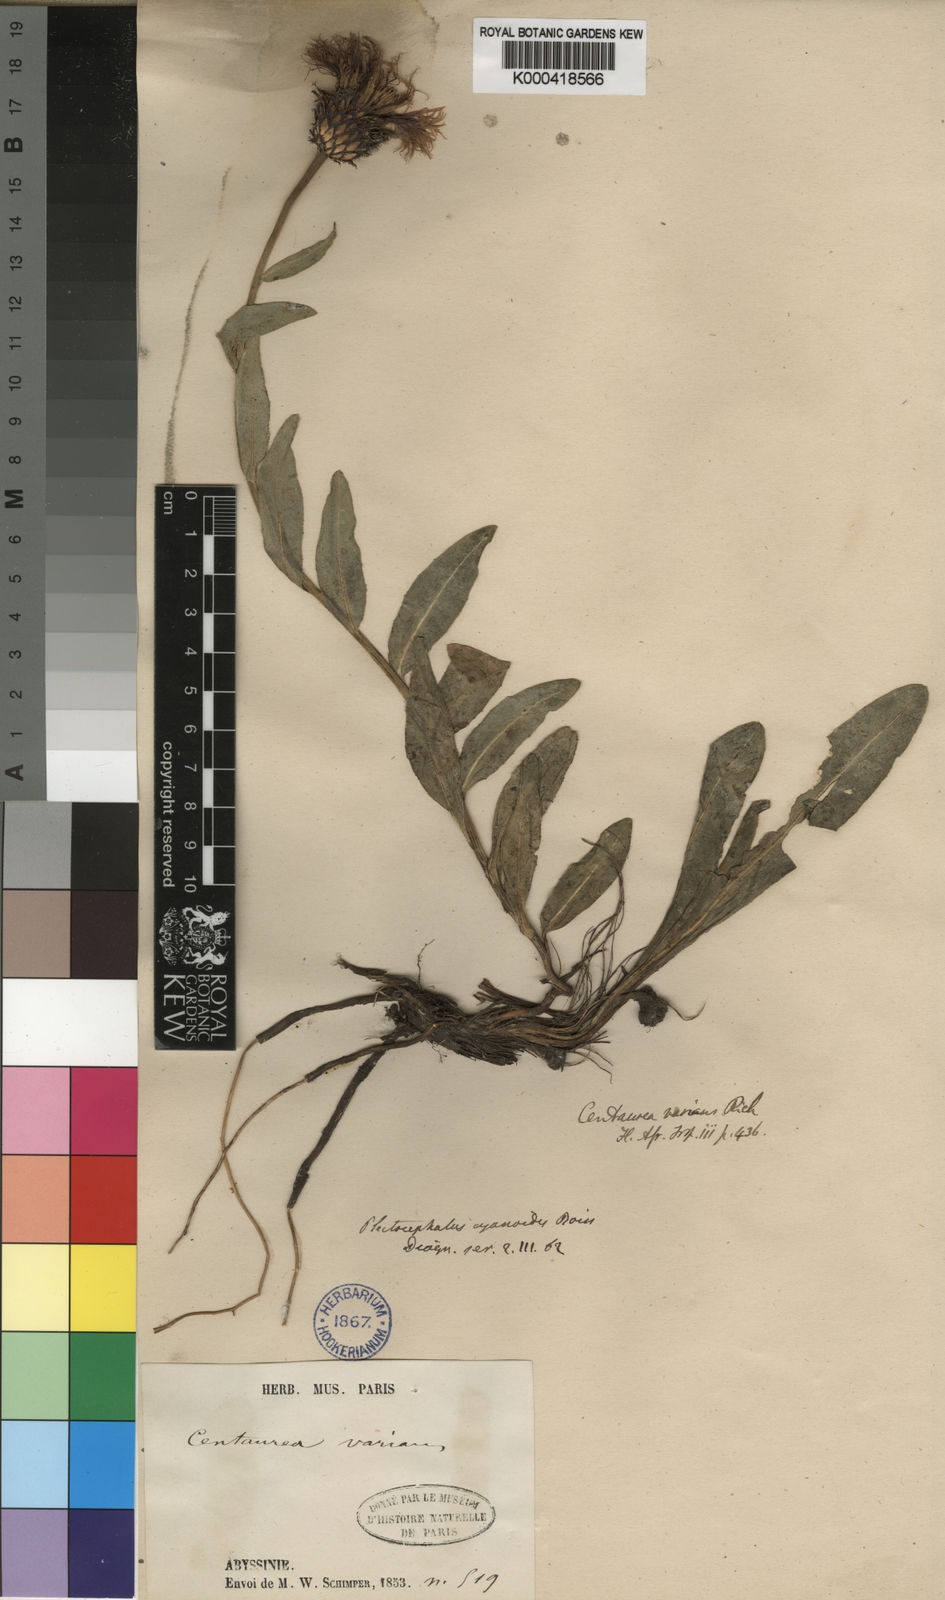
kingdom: Plantae
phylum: Tracheophyta
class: Magnoliopsida
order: Asterales
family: Asteraceae
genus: Plectocephalus
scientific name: Plectocephalus
